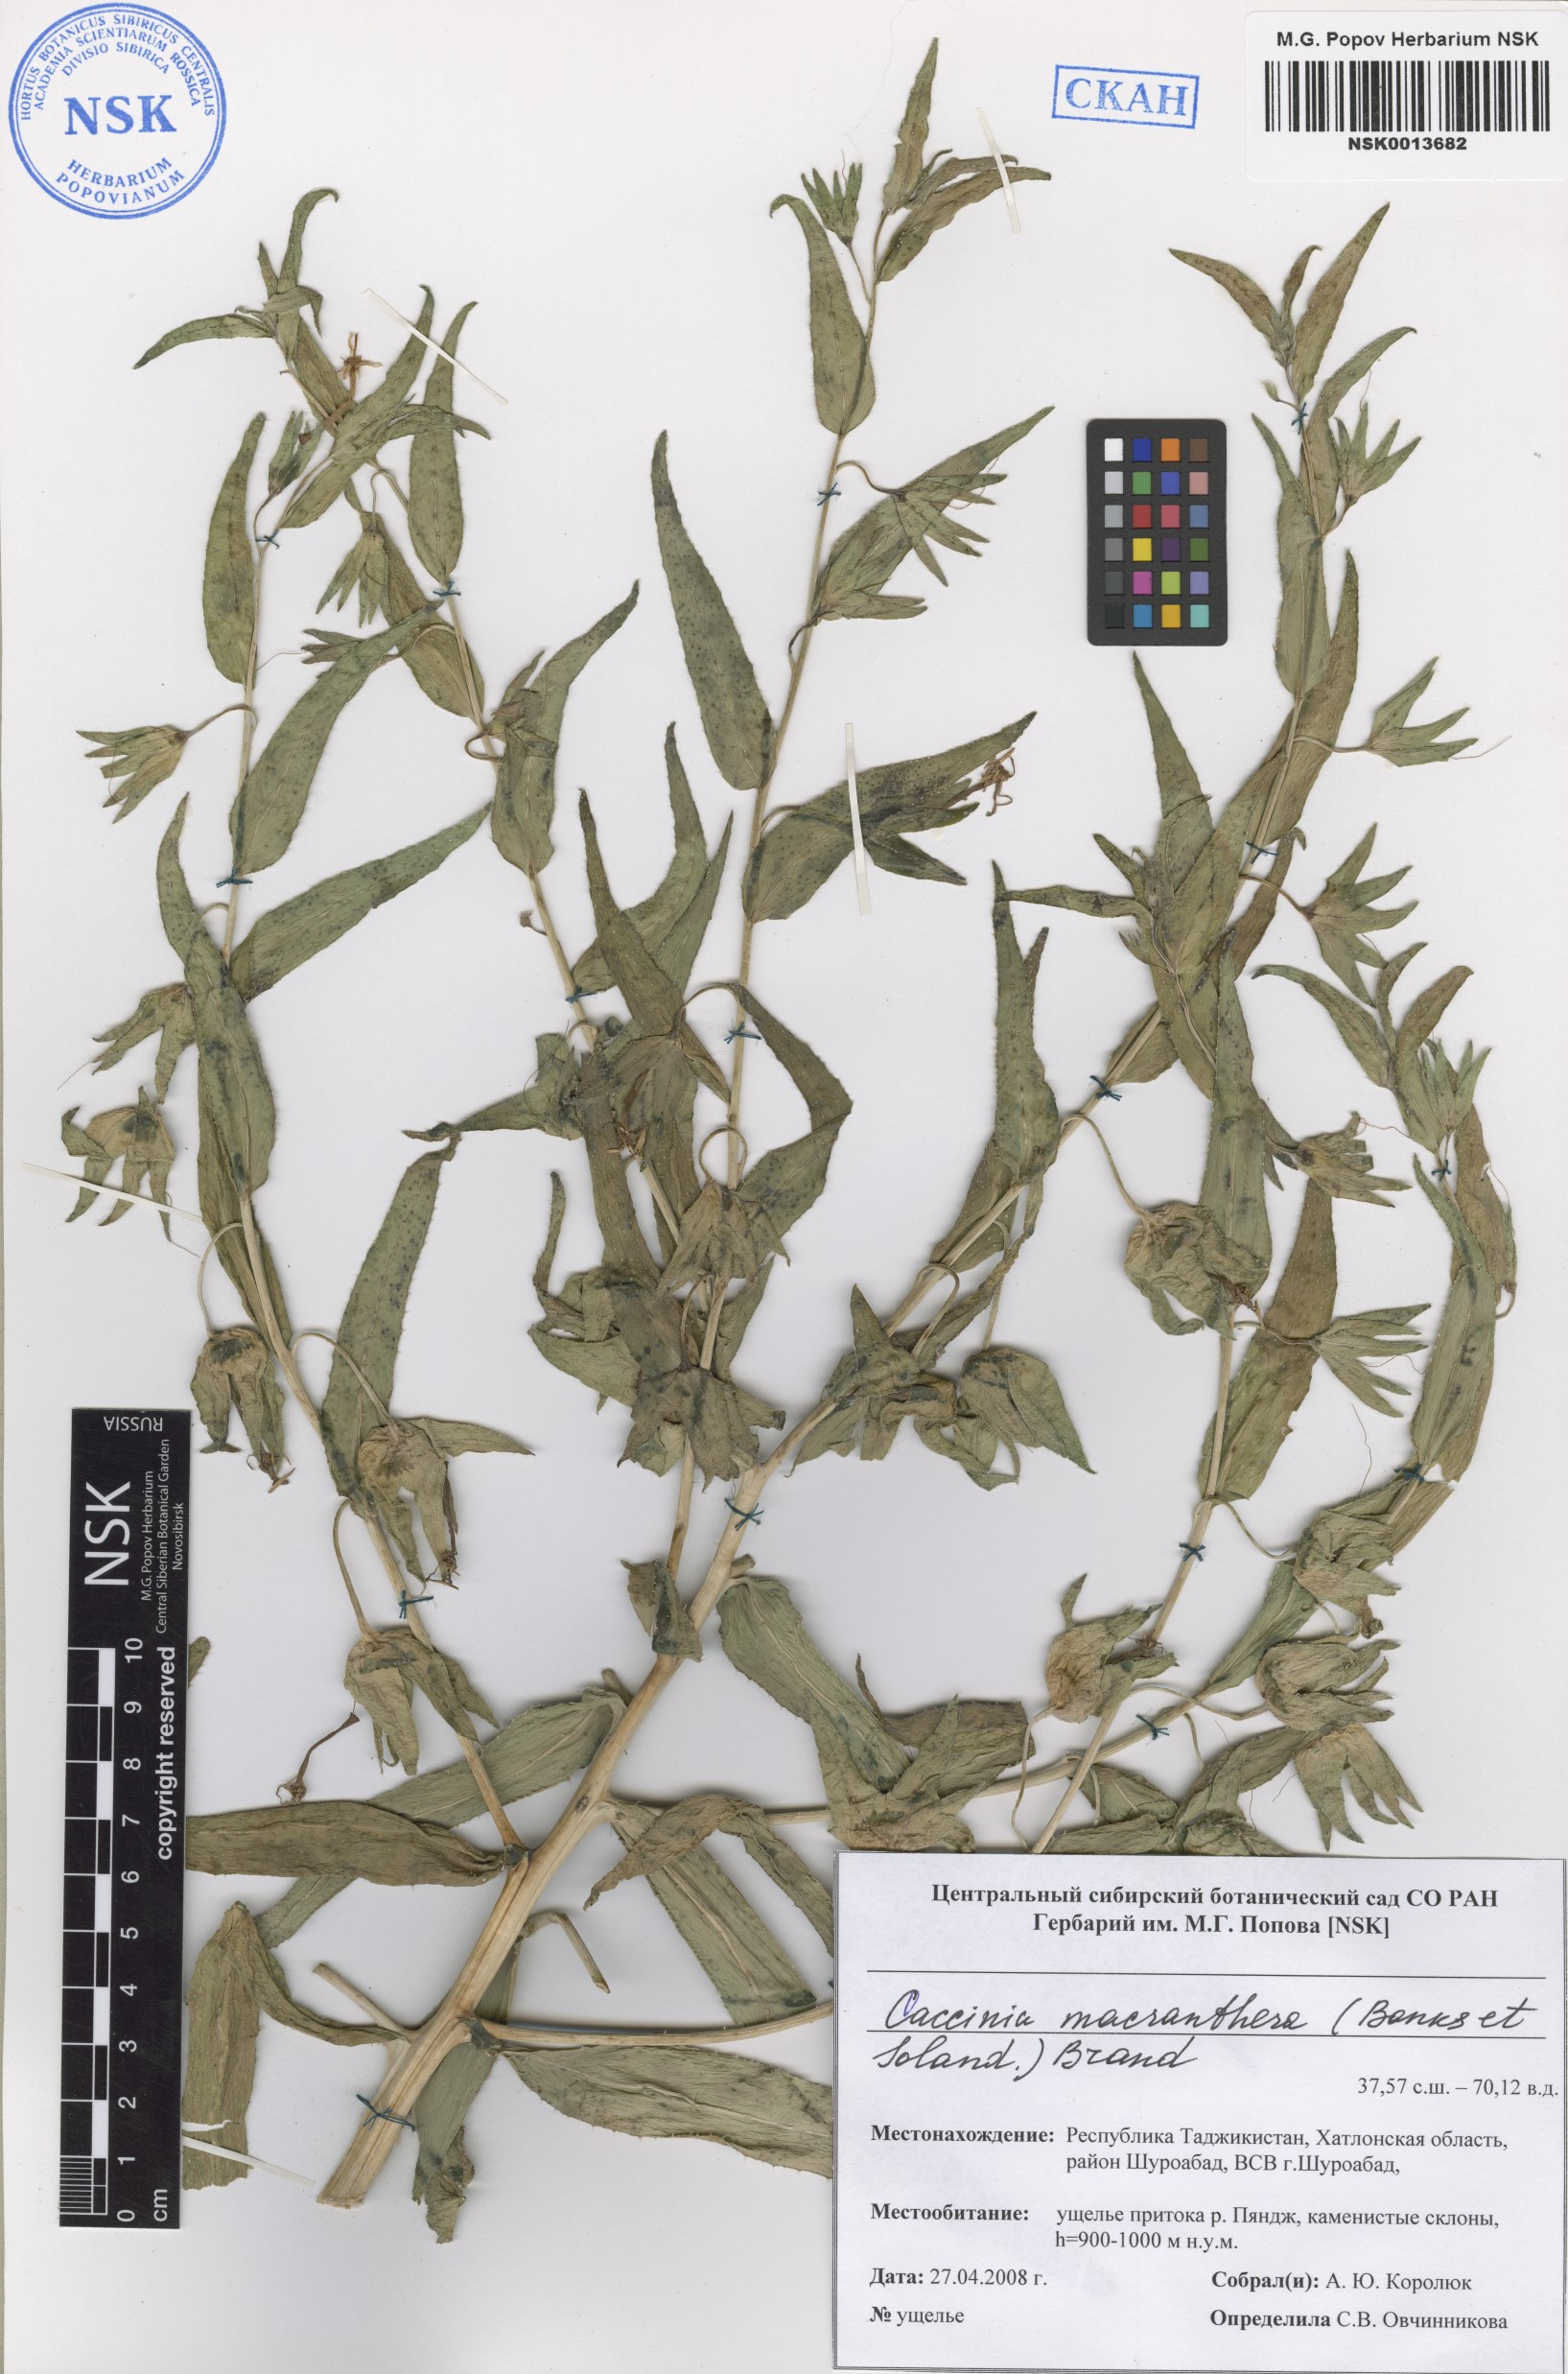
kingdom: Plantae
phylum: Tracheophyta
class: Magnoliopsida
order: Boraginales
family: Boraginaceae
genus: Caccinia
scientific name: Caccinia macranthera
